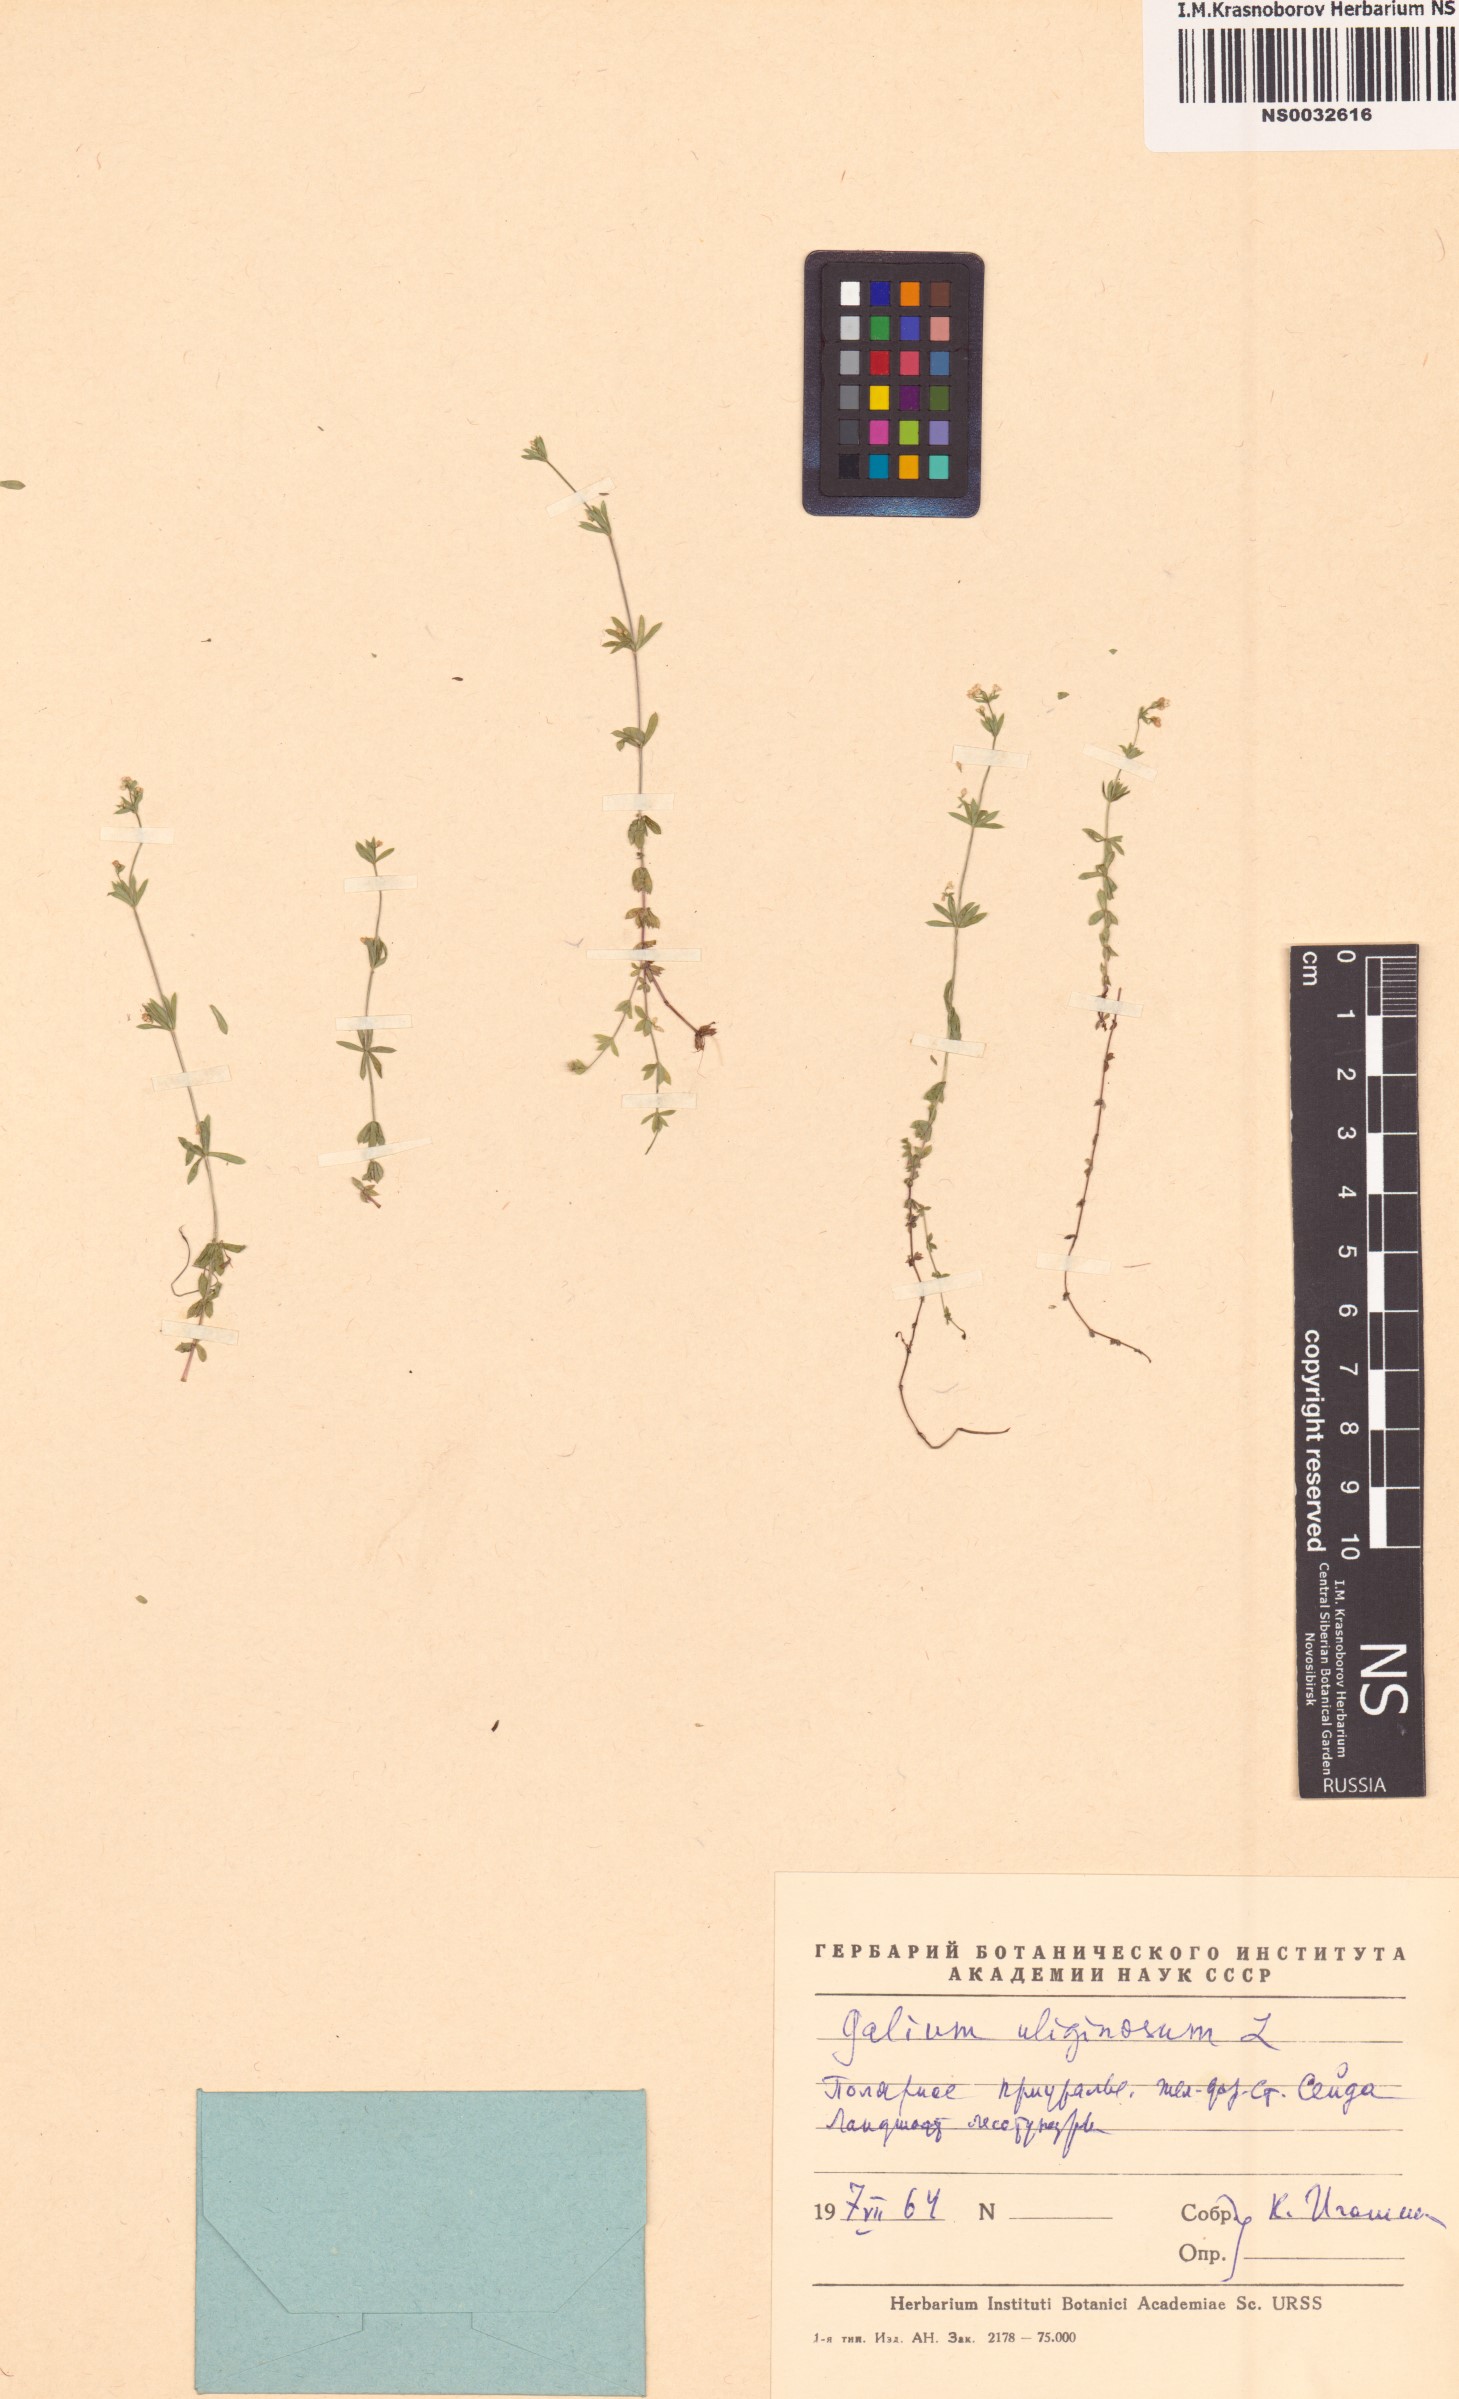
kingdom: Plantae
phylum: Tracheophyta
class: Magnoliopsida
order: Gentianales
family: Rubiaceae
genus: Galium
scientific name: Galium uliginosum
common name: Fen bedstraw
